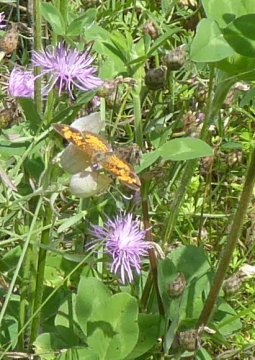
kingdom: Animalia
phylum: Arthropoda
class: Insecta
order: Lepidoptera
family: Nymphalidae
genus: Phyciodes
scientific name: Phyciodes
